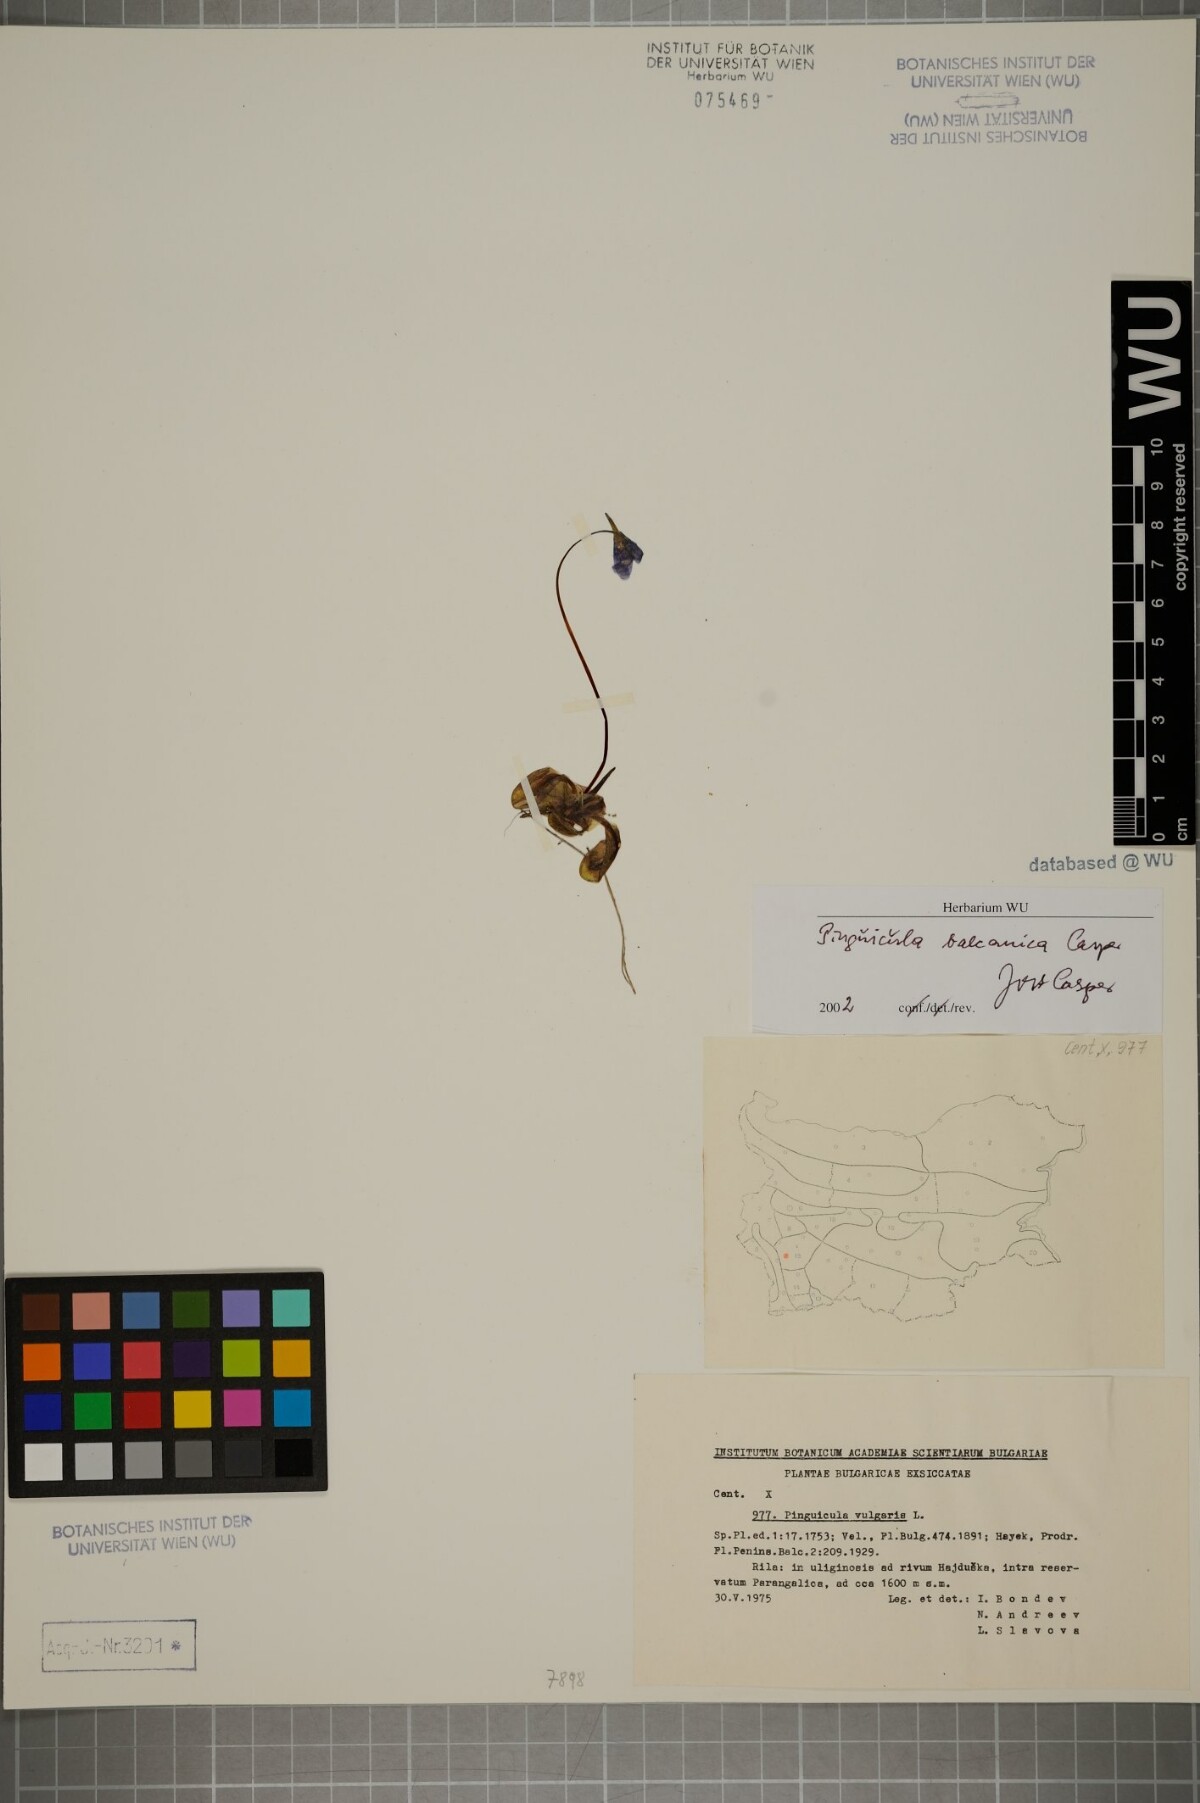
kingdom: Plantae
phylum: Tracheophyta
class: Magnoliopsida
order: Lamiales
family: Lentibulariaceae
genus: Pinguicula
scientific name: Pinguicula balcanica
